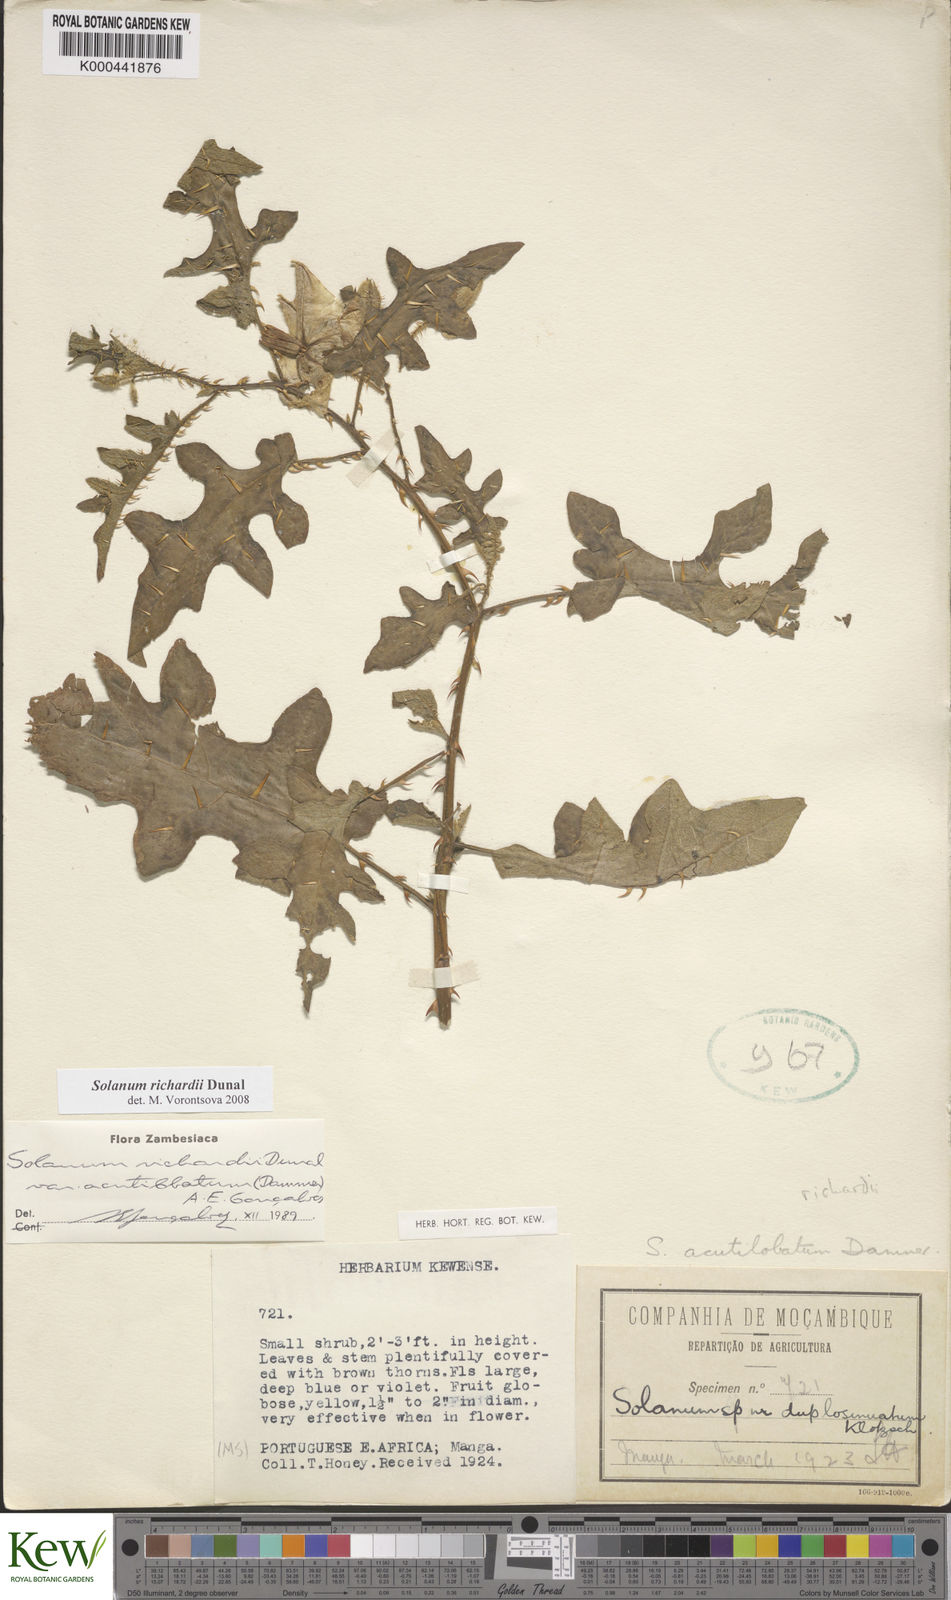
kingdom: Plantae
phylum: Tracheophyta
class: Magnoliopsida
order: Solanales
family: Solanaceae
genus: Solanum
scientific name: Solanum richardii
